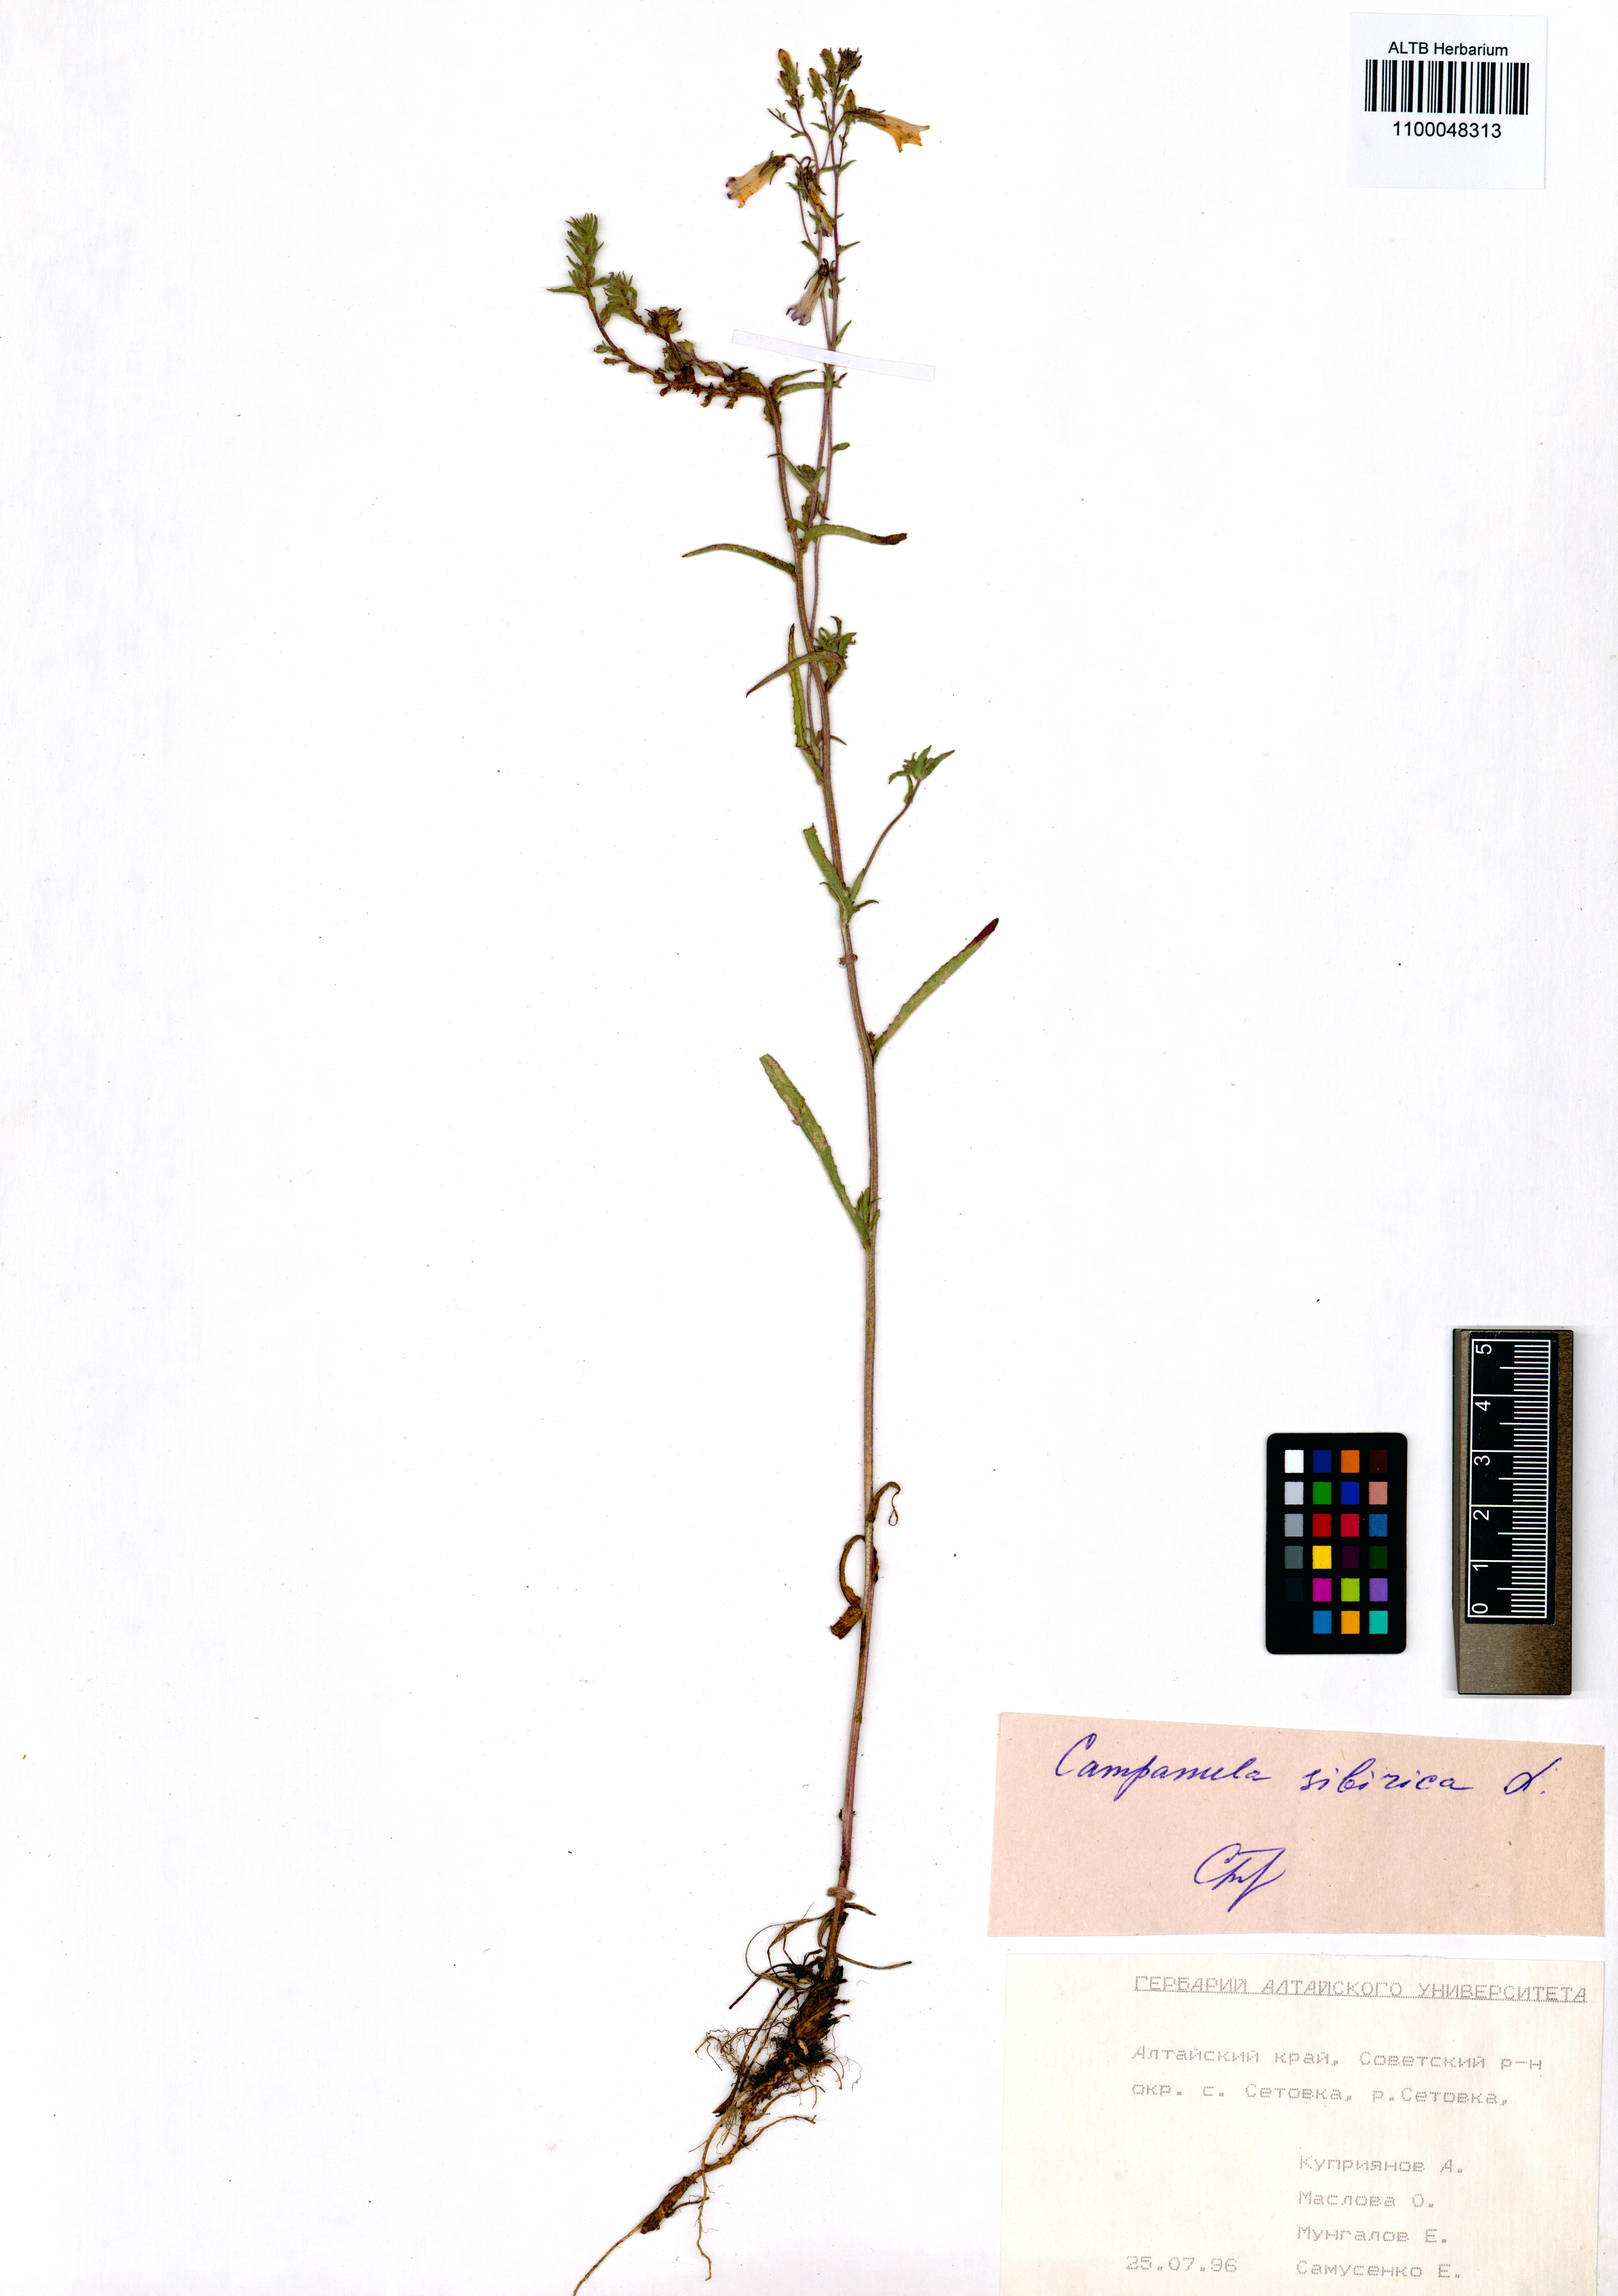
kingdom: Plantae
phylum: Tracheophyta
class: Magnoliopsida
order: Asterales
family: Campanulaceae
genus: Campanula
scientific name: Campanula sibirica
